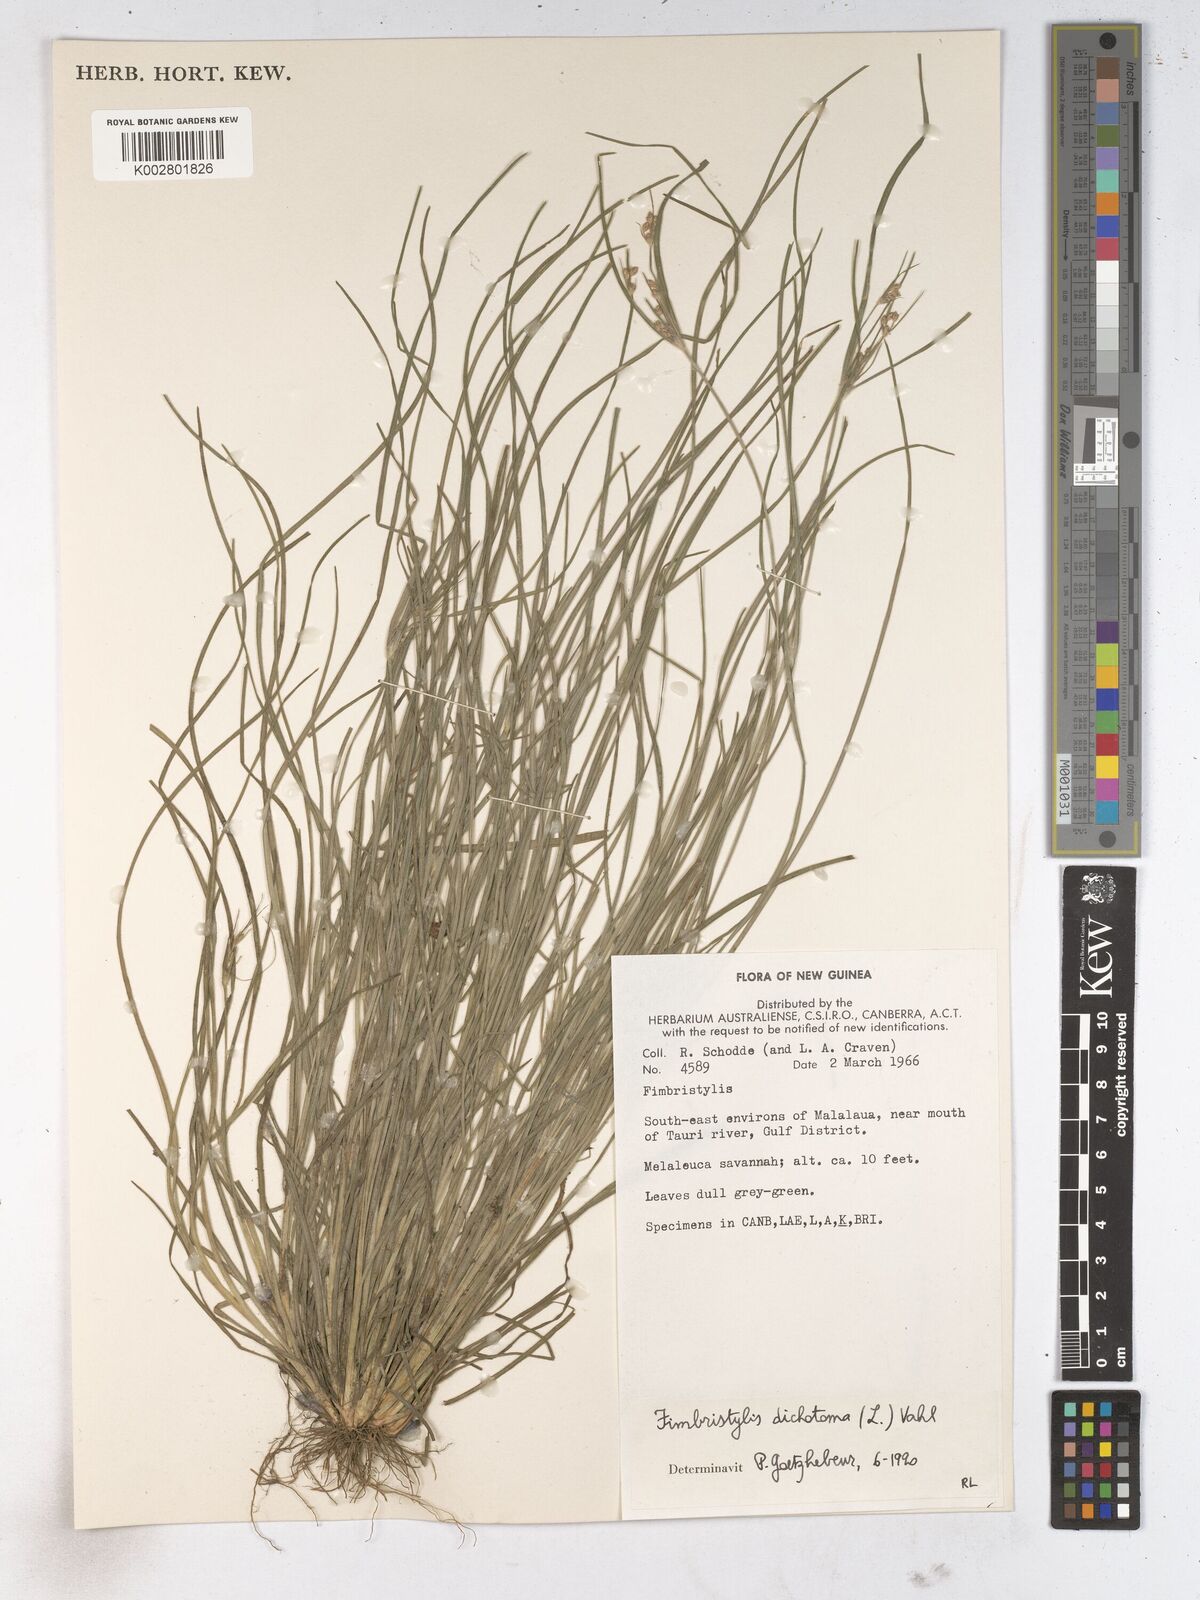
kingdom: Plantae
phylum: Tracheophyta
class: Liliopsida
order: Poales
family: Cyperaceae
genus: Fimbristylis
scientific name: Fimbristylis dichotoma
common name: Forked fimbry
